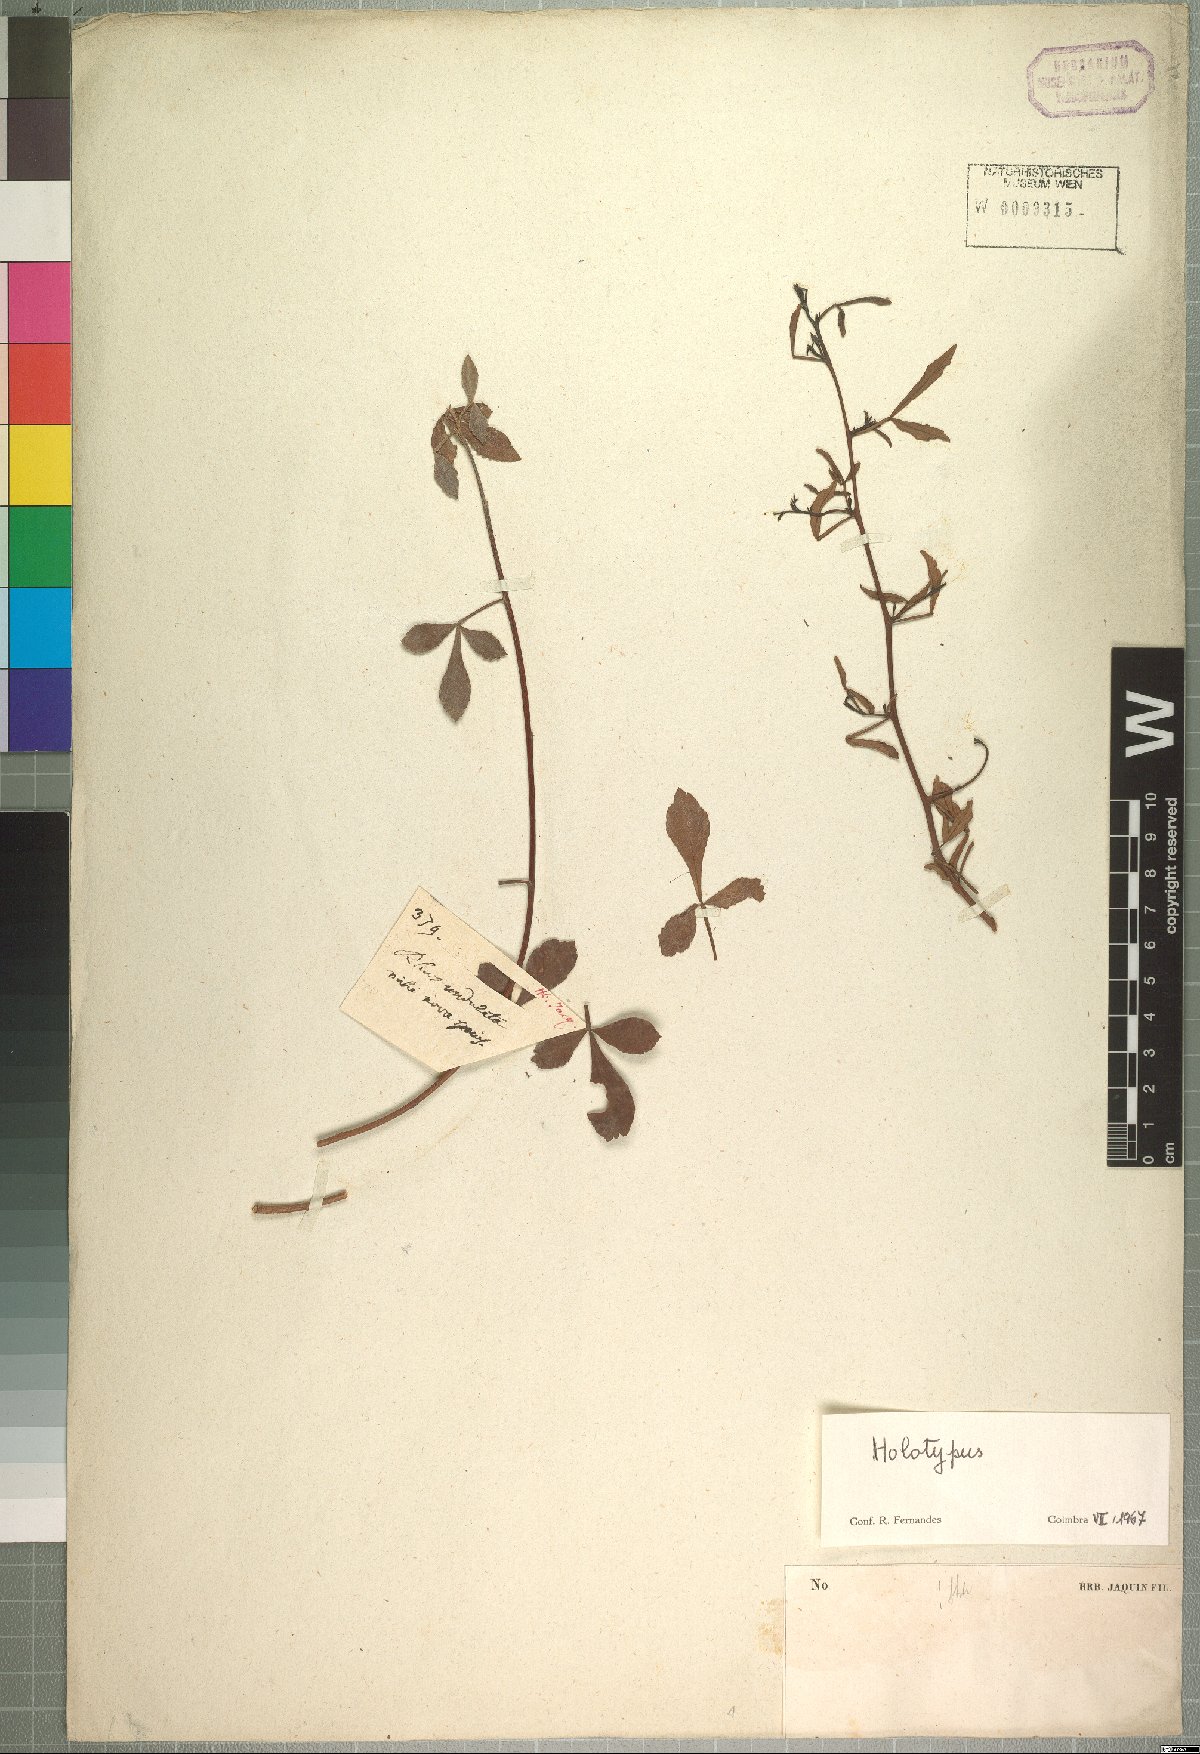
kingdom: Plantae
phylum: Tracheophyta
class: Magnoliopsida
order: Sapindales
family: Anacardiaceae
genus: Searsia
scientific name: Searsia undulata
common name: Namaqua kunibush
